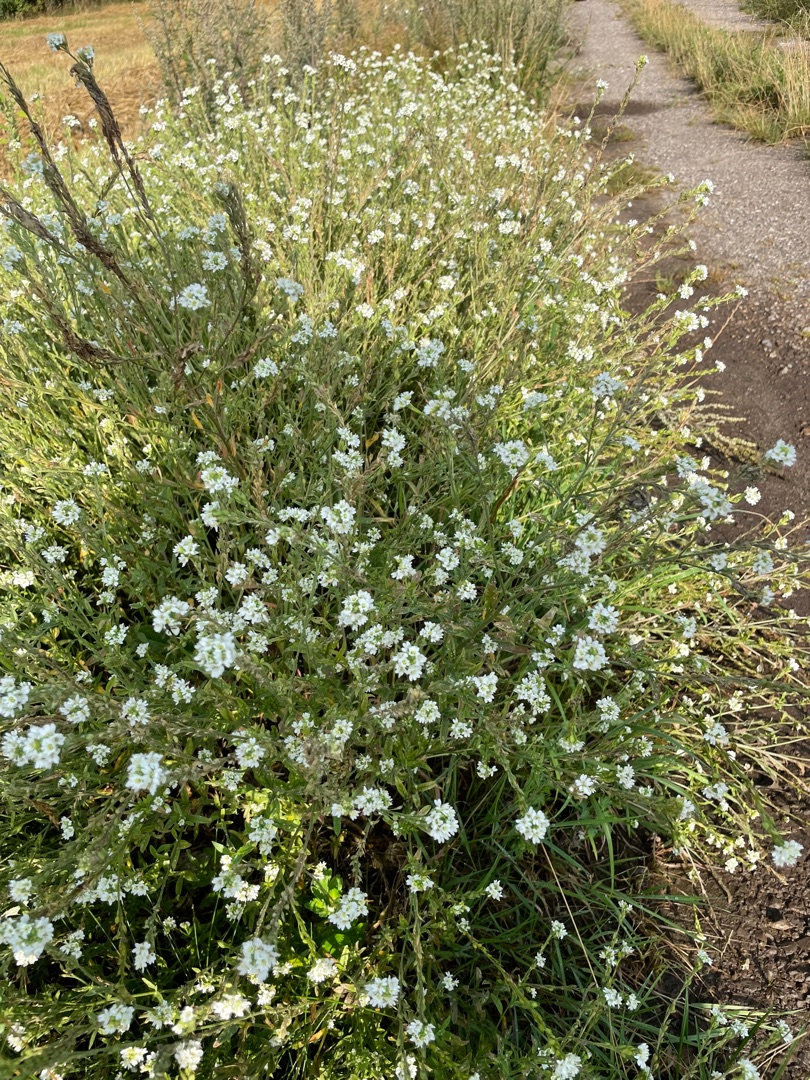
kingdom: Plantae
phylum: Tracheophyta
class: Magnoliopsida
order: Brassicales
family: Brassicaceae
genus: Berteroa
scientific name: Berteroa incana
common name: Kløvplade
